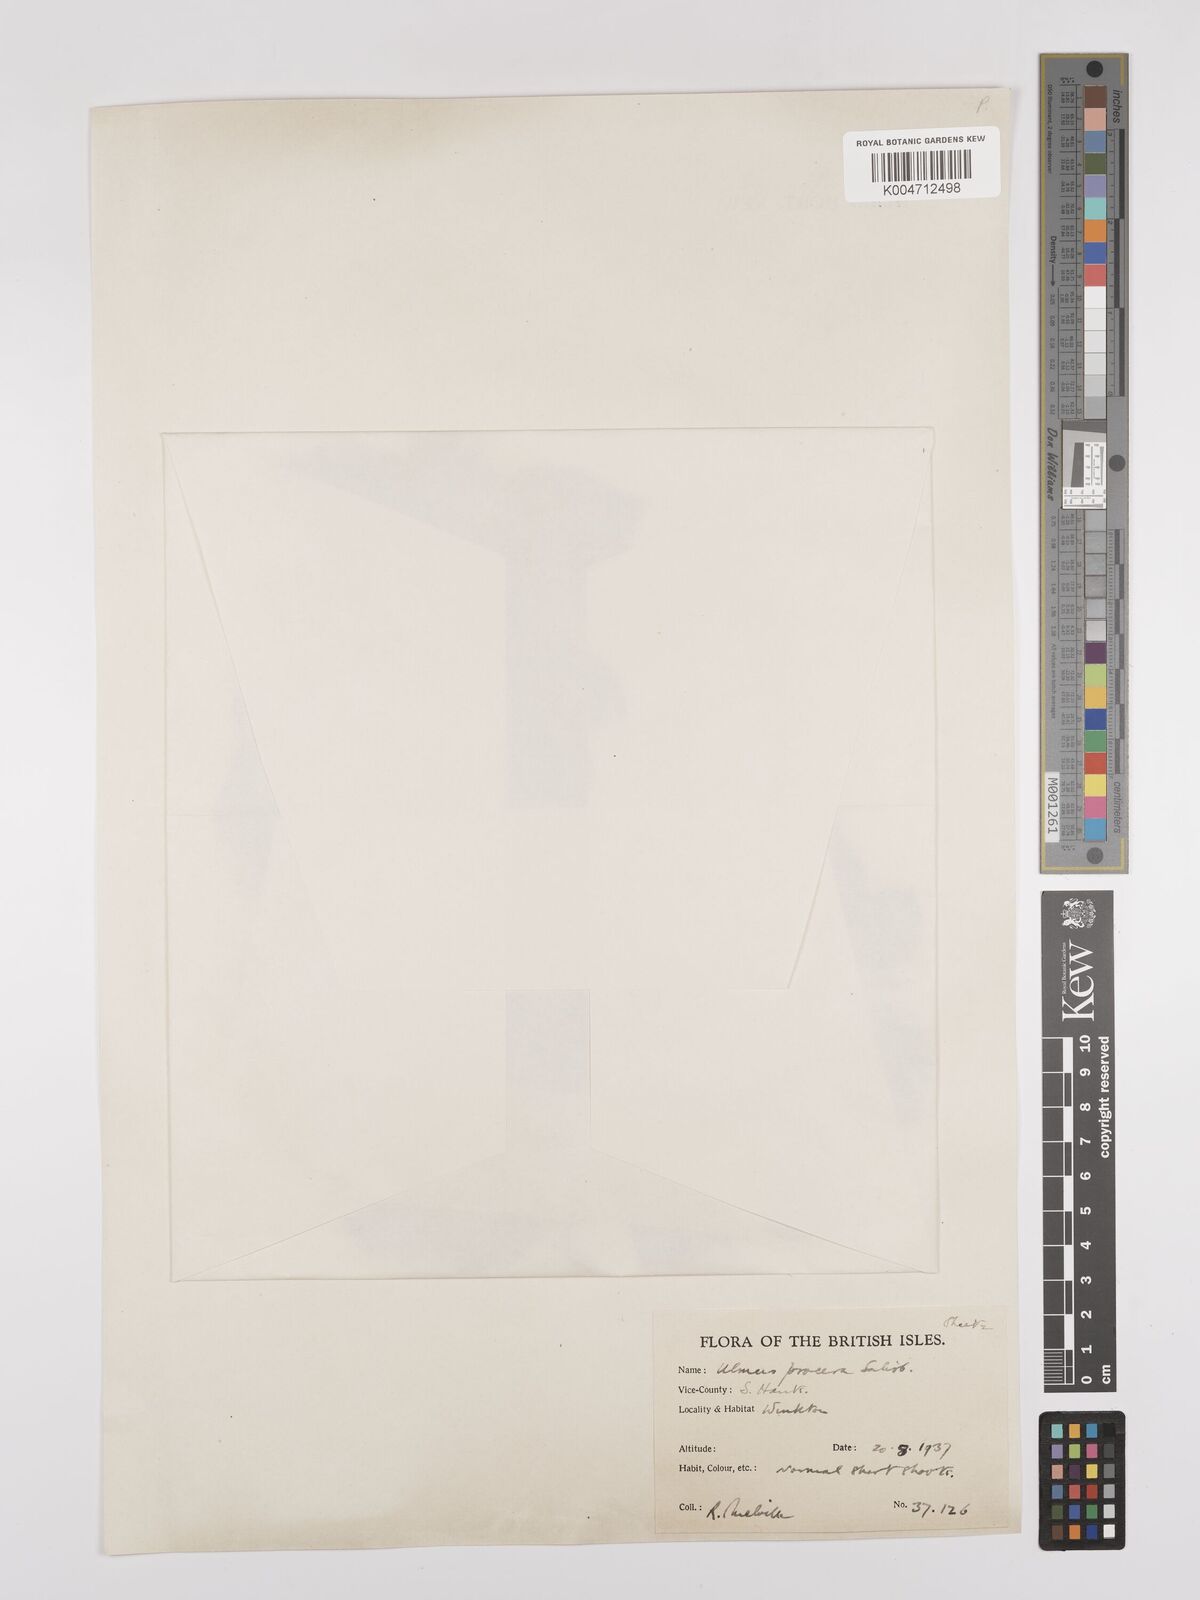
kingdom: Plantae
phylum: Tracheophyta
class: Magnoliopsida
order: Rosales
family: Ulmaceae
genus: Ulmus
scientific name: Ulmus minor
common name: Small-leaved elm
